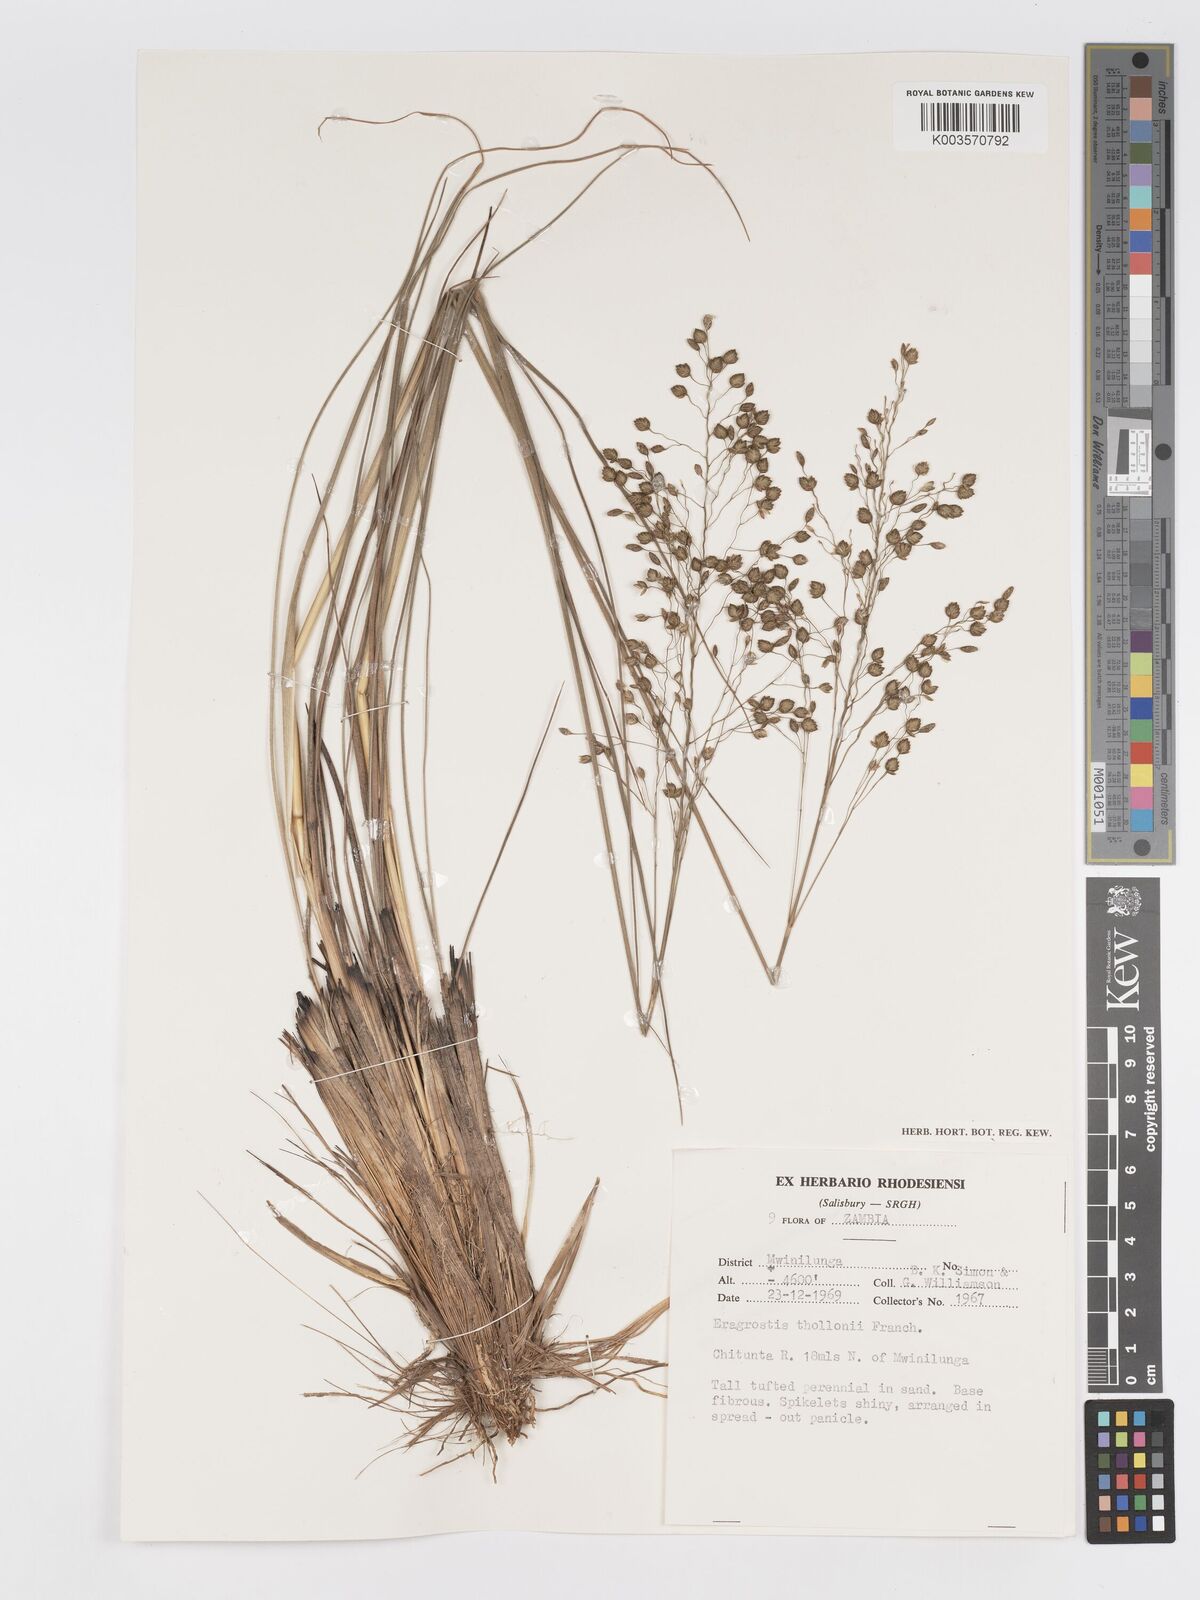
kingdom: Plantae
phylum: Tracheophyta
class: Liliopsida
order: Poales
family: Poaceae
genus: Eragrostis
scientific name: Eragrostis thollonii
